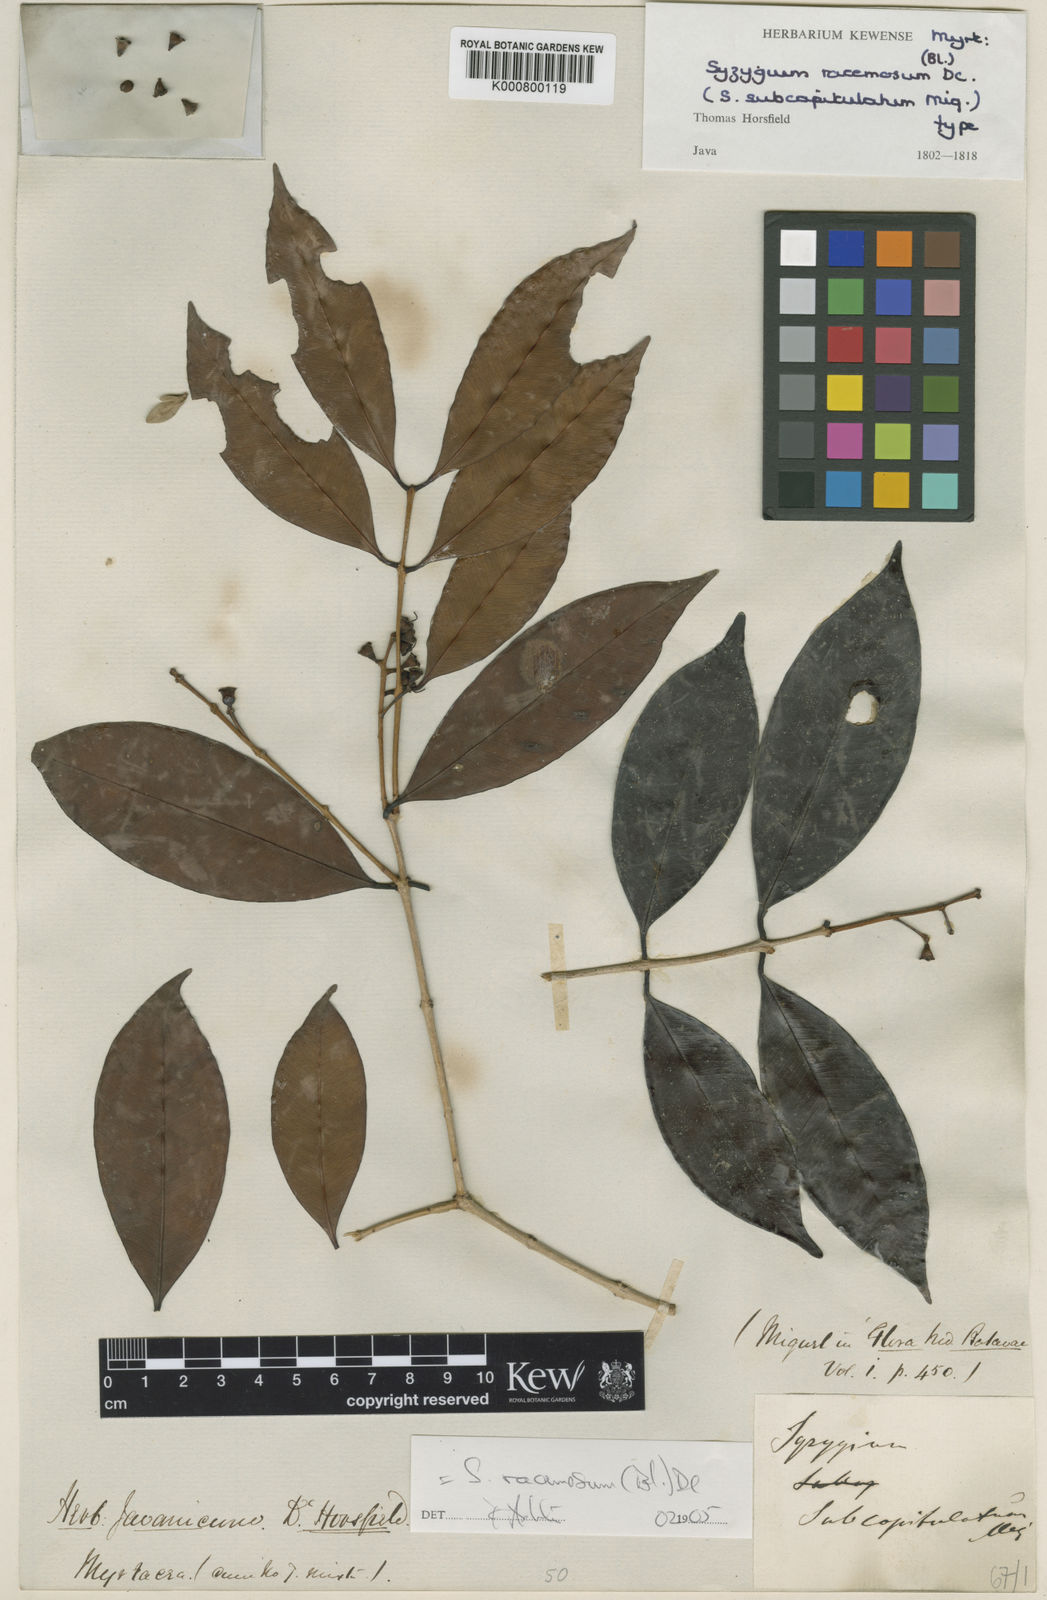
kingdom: Plantae
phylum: Tracheophyta
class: Magnoliopsida
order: Myrtales
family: Myrtaceae
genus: Syzygium
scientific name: Syzygium racemosum
